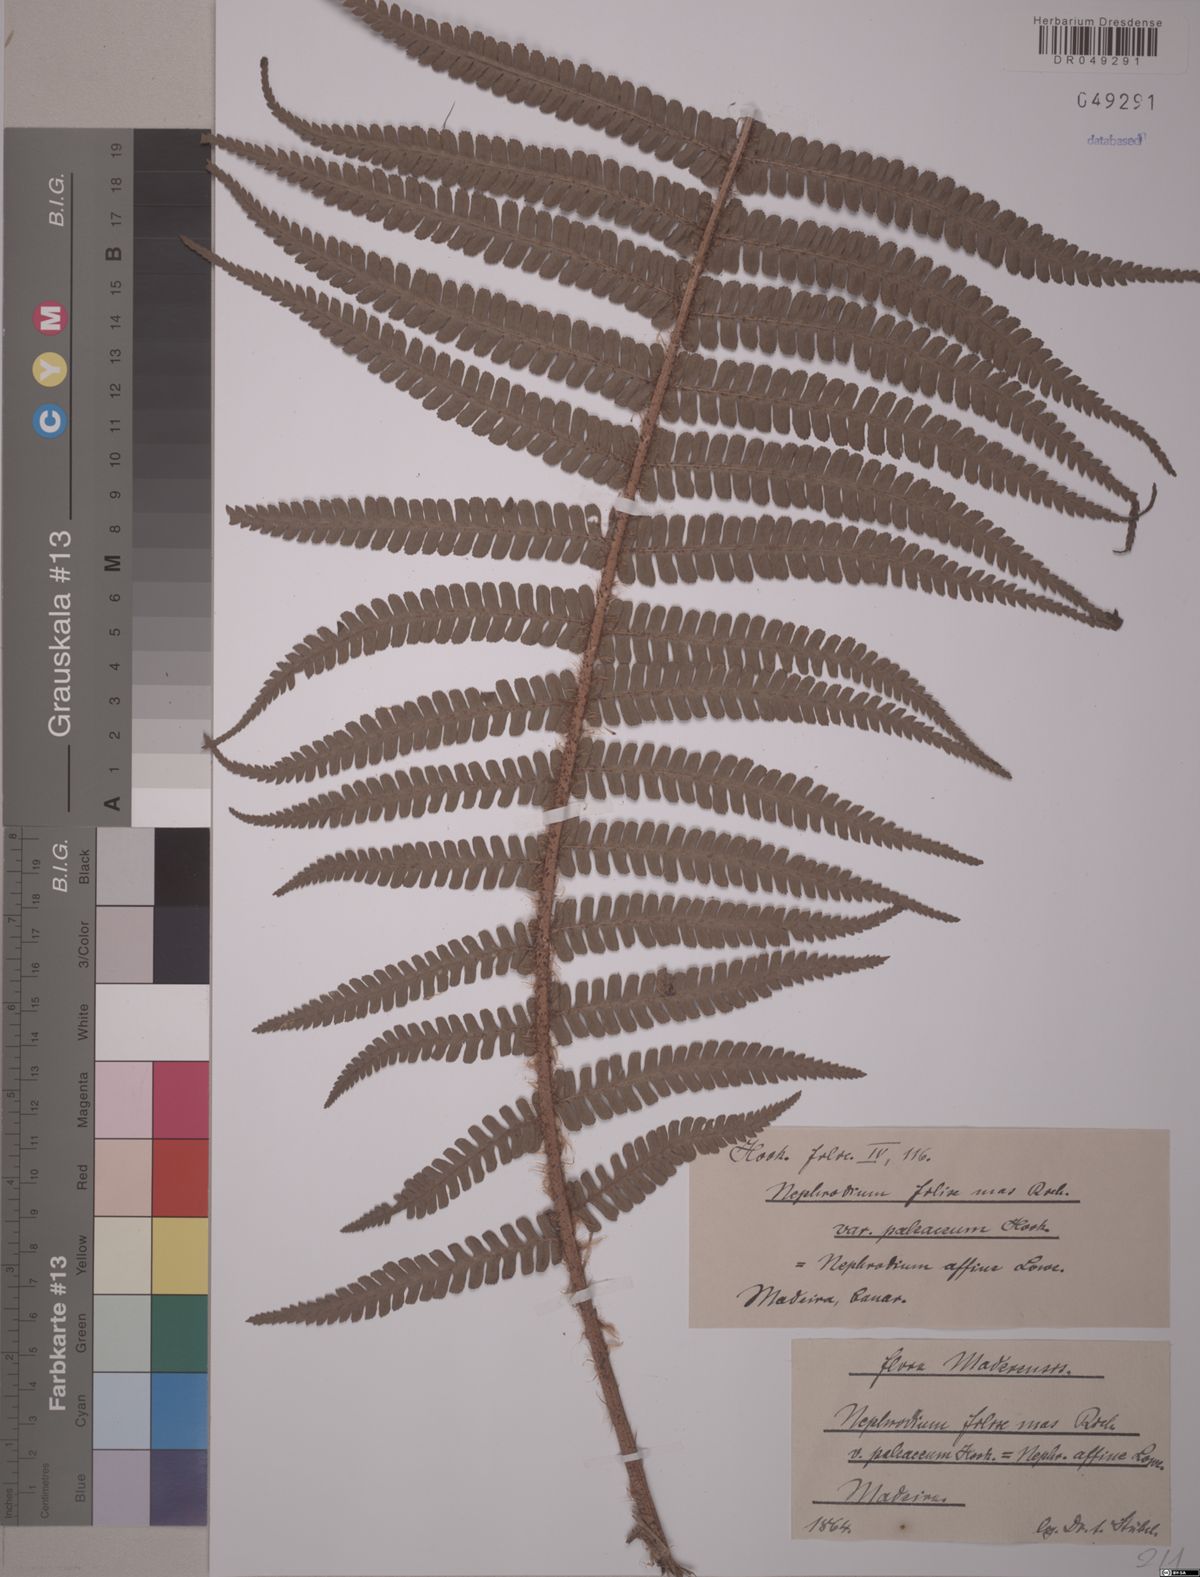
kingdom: Plantae
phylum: Tracheophyta
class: Polypodiopsida
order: Polypodiales
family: Dryopteridaceae
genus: Dryopteris
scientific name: Dryopteris affinis
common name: Scaly male fern
